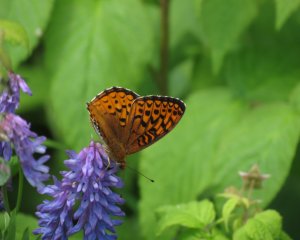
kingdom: Animalia
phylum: Arthropoda
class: Insecta
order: Lepidoptera
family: Nymphalidae
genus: Speyeria
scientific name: Speyeria atlantis
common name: Atlantis Fritillary
